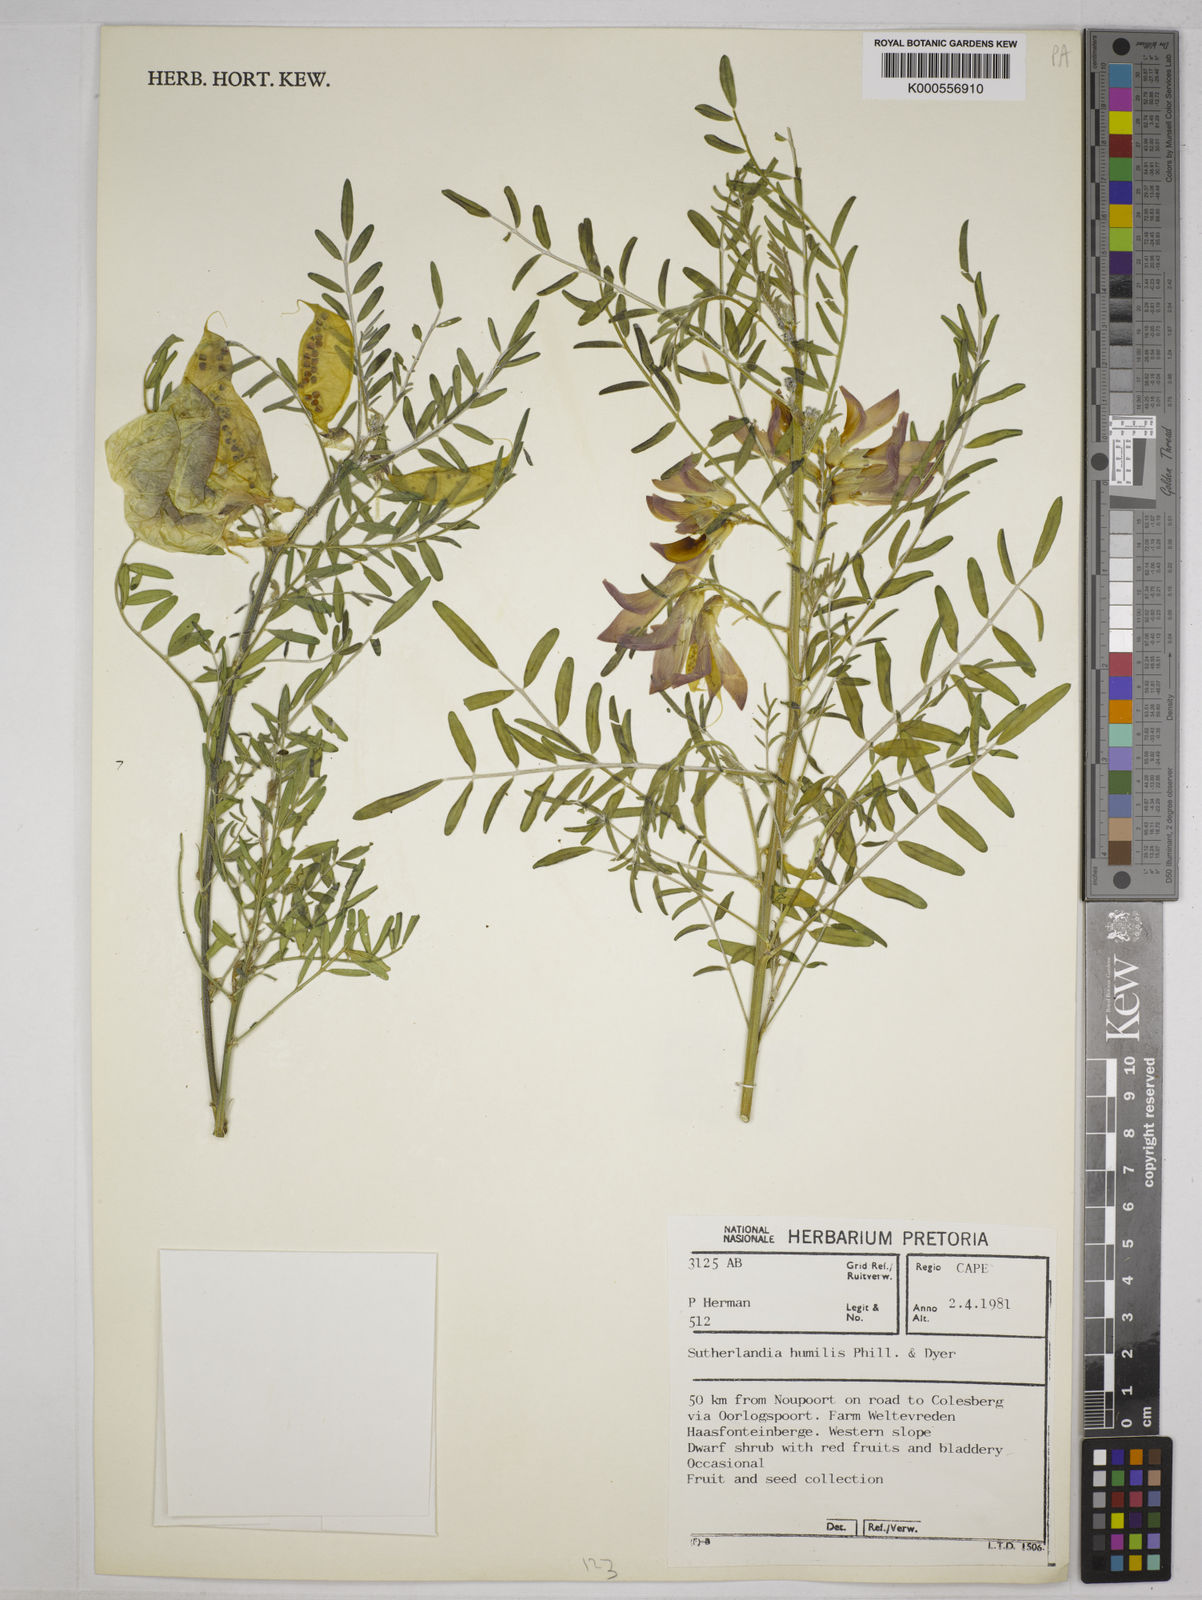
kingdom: Plantae
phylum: Tracheophyta
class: Magnoliopsida
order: Fabales
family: Fabaceae
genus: Lessertia
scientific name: Lessertia humilis
